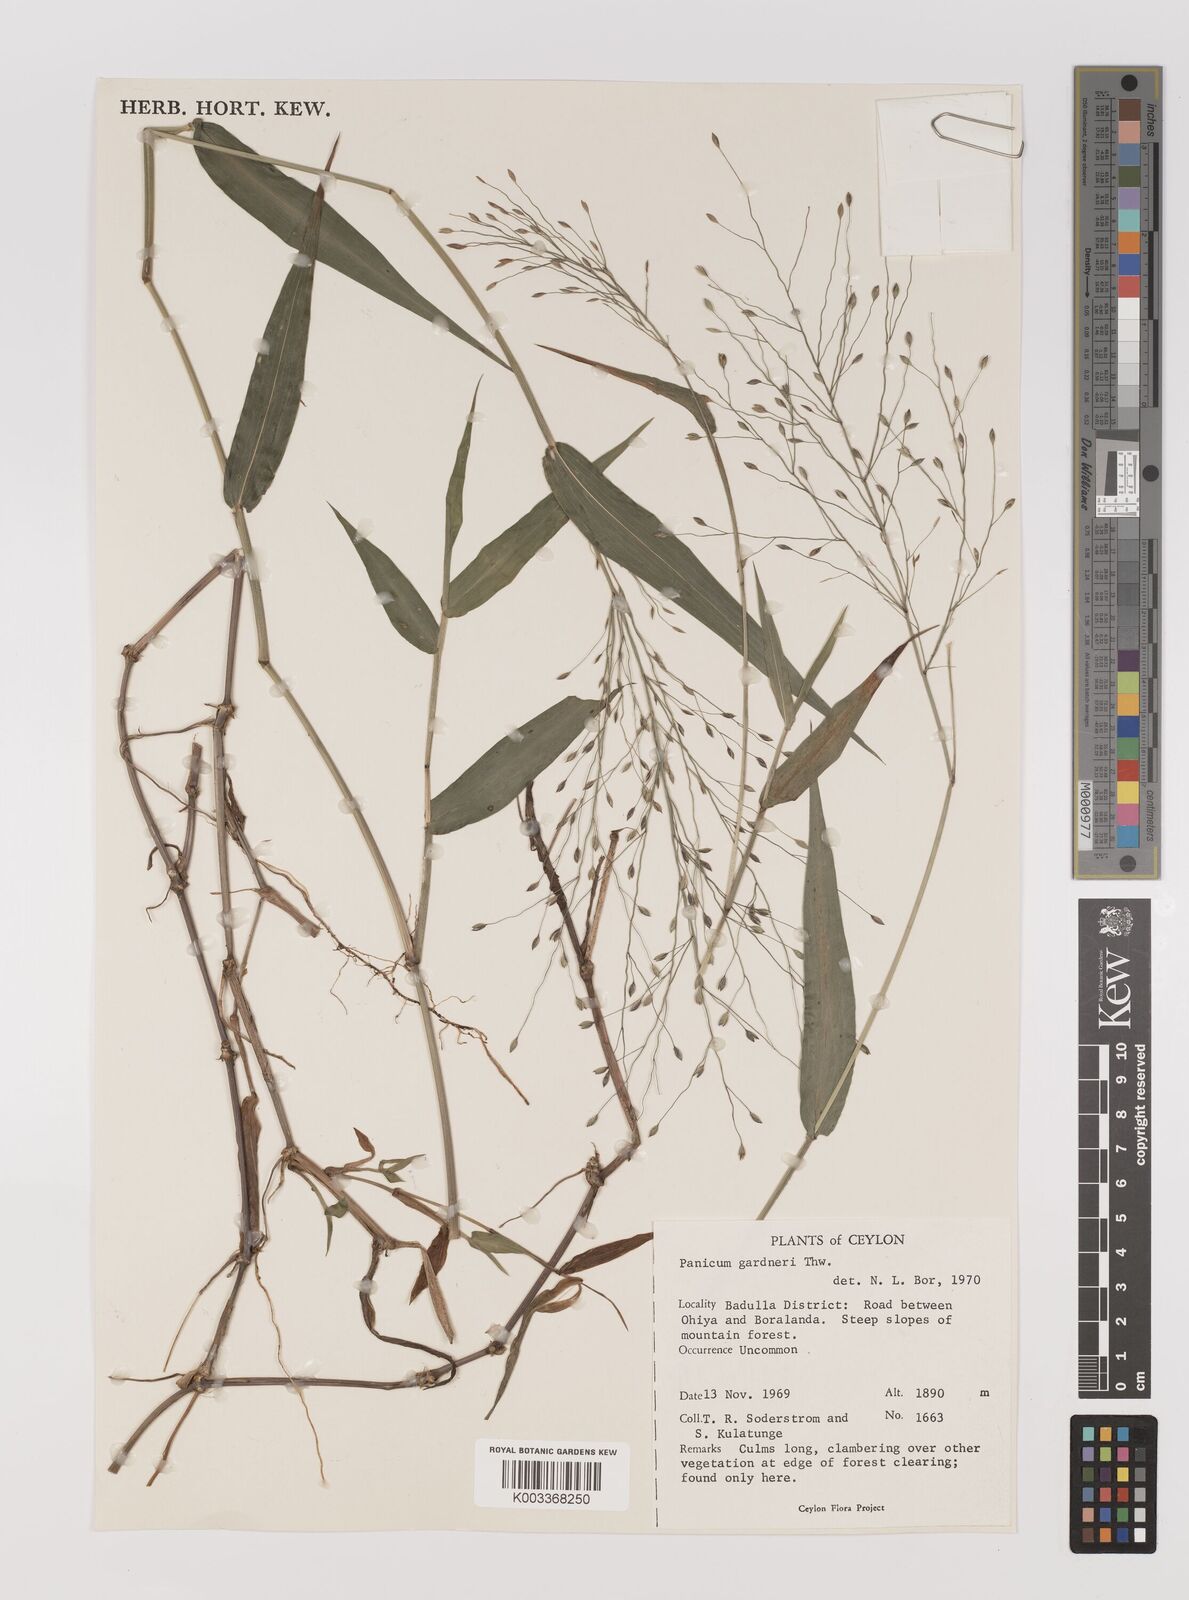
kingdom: Plantae
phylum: Tracheophyta
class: Liliopsida
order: Poales
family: Poaceae
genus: Panicum
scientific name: Panicum gardneri
